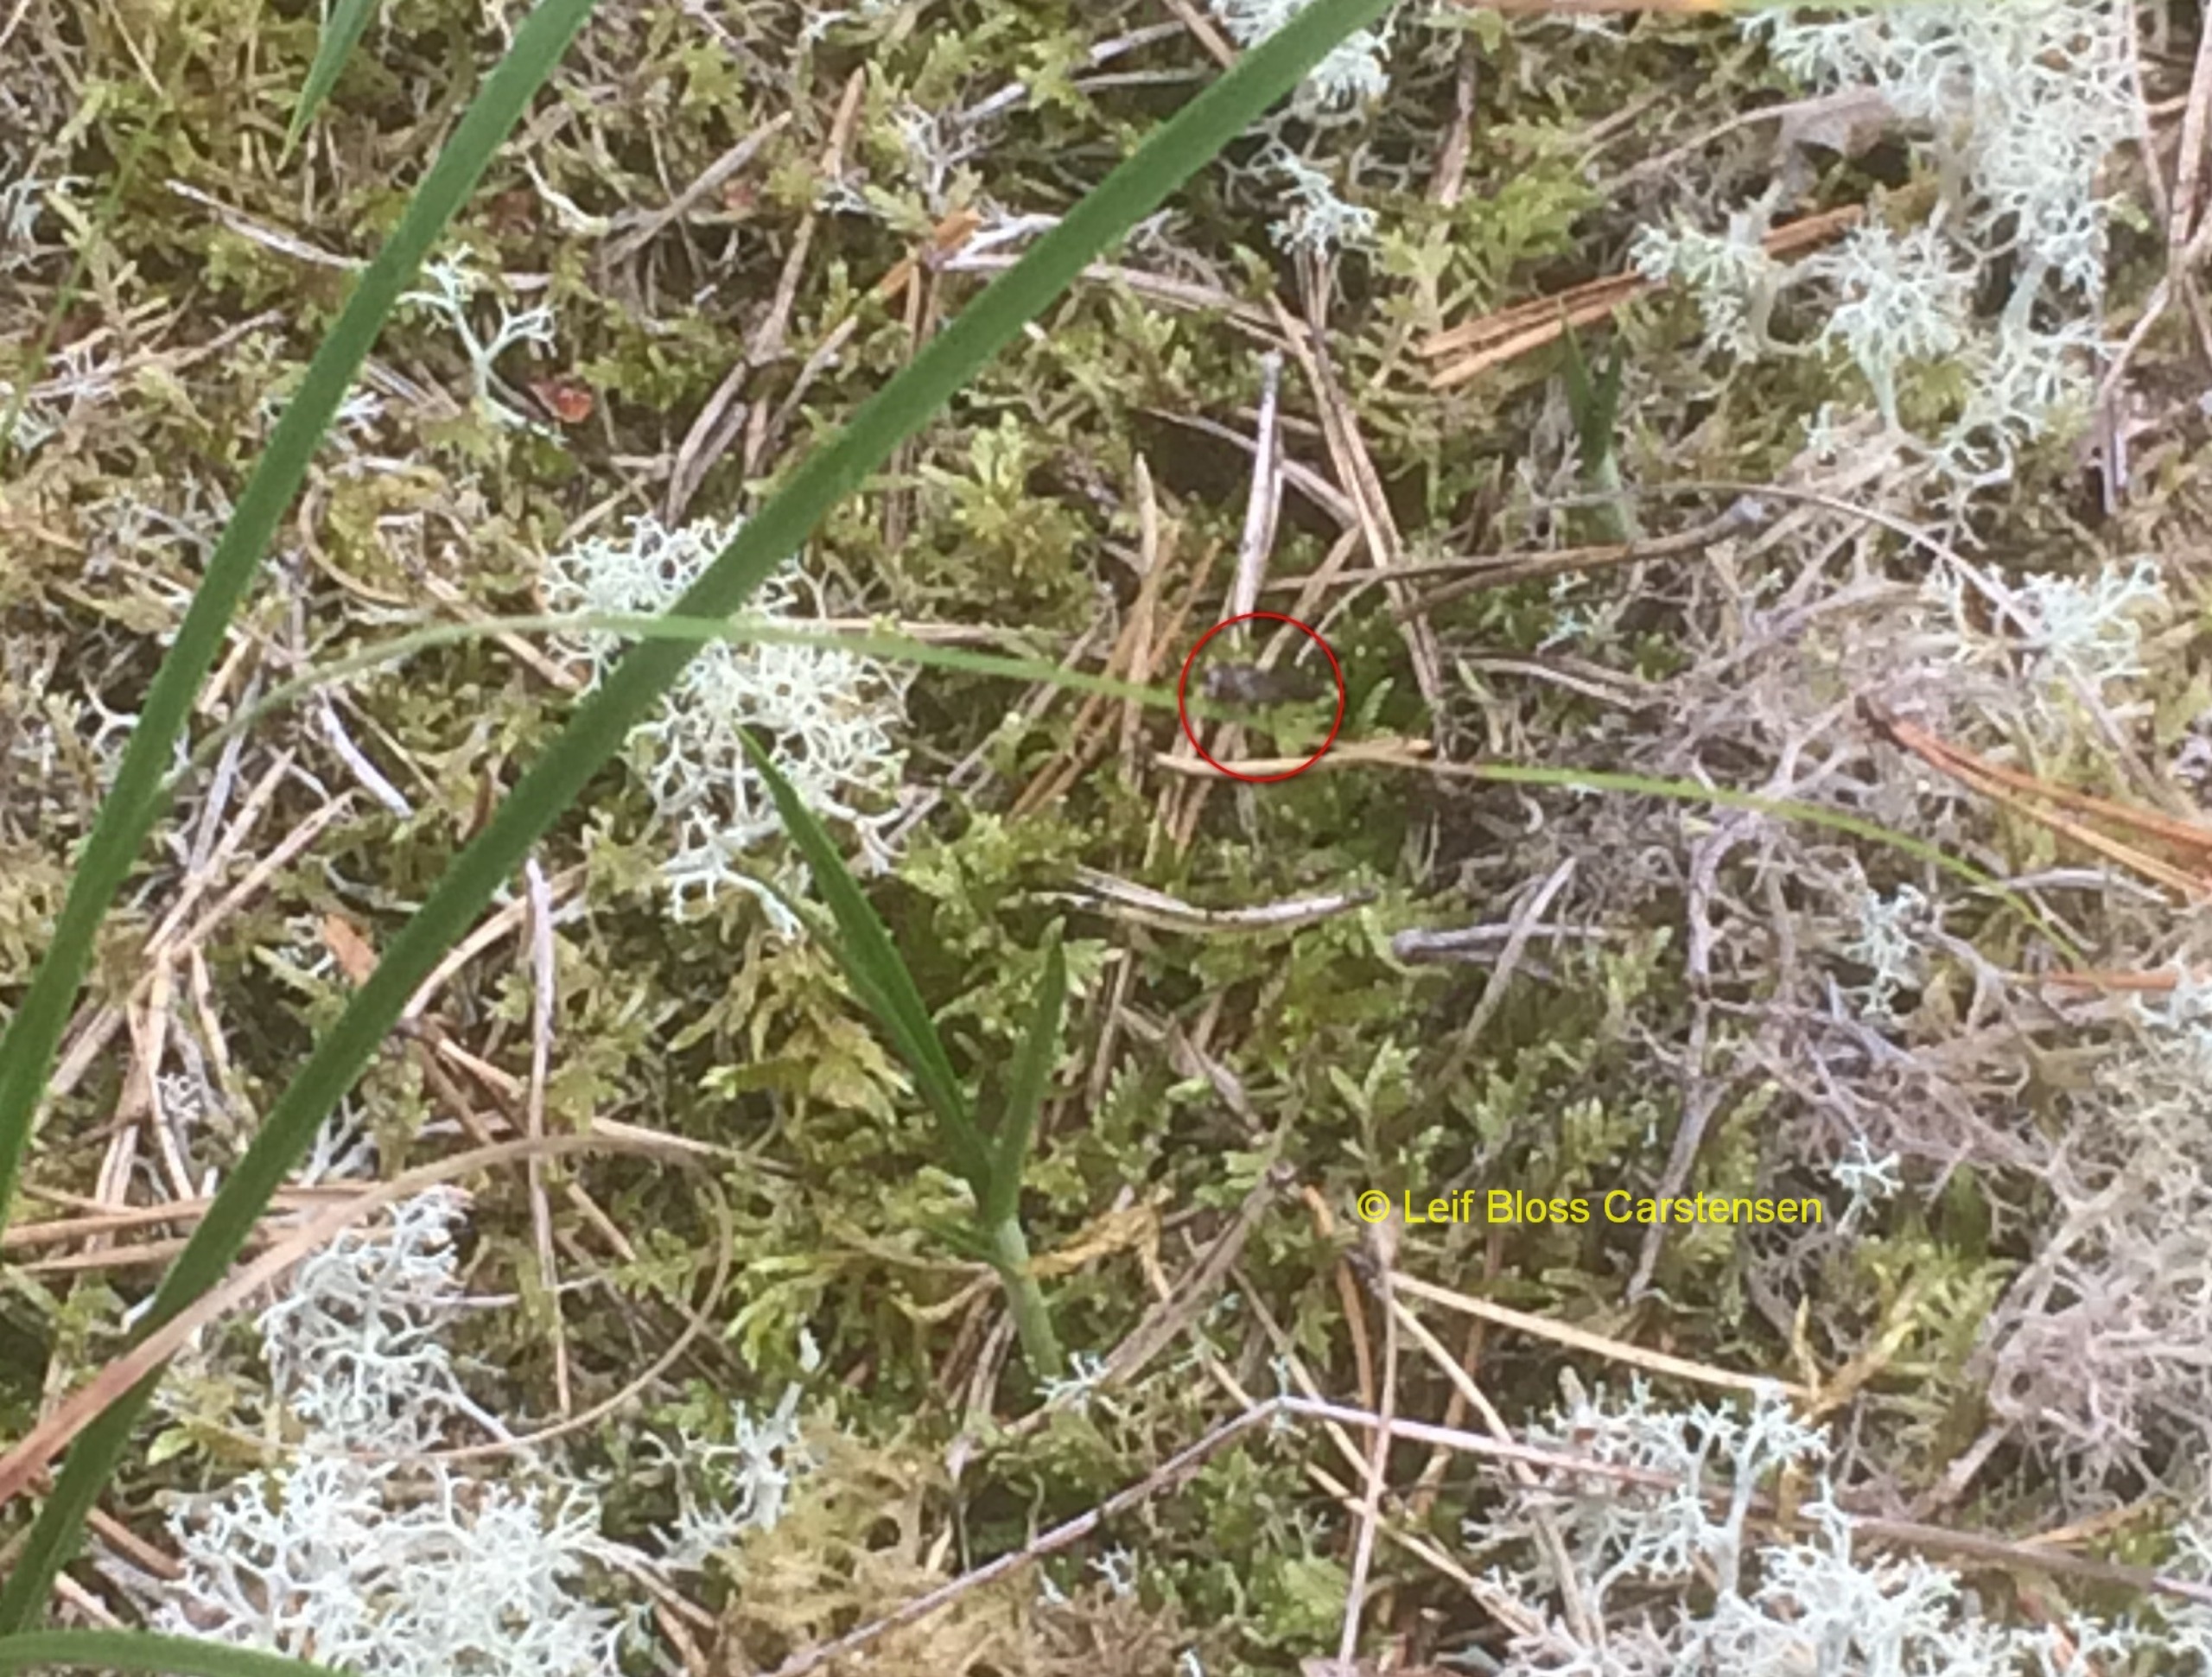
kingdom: Animalia
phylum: Arthropoda
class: Insecta
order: Diptera
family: Syrphidae
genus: Chamaesyrphus
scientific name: Chamaesyrphus lugubris
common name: Dværg-svirreflue
